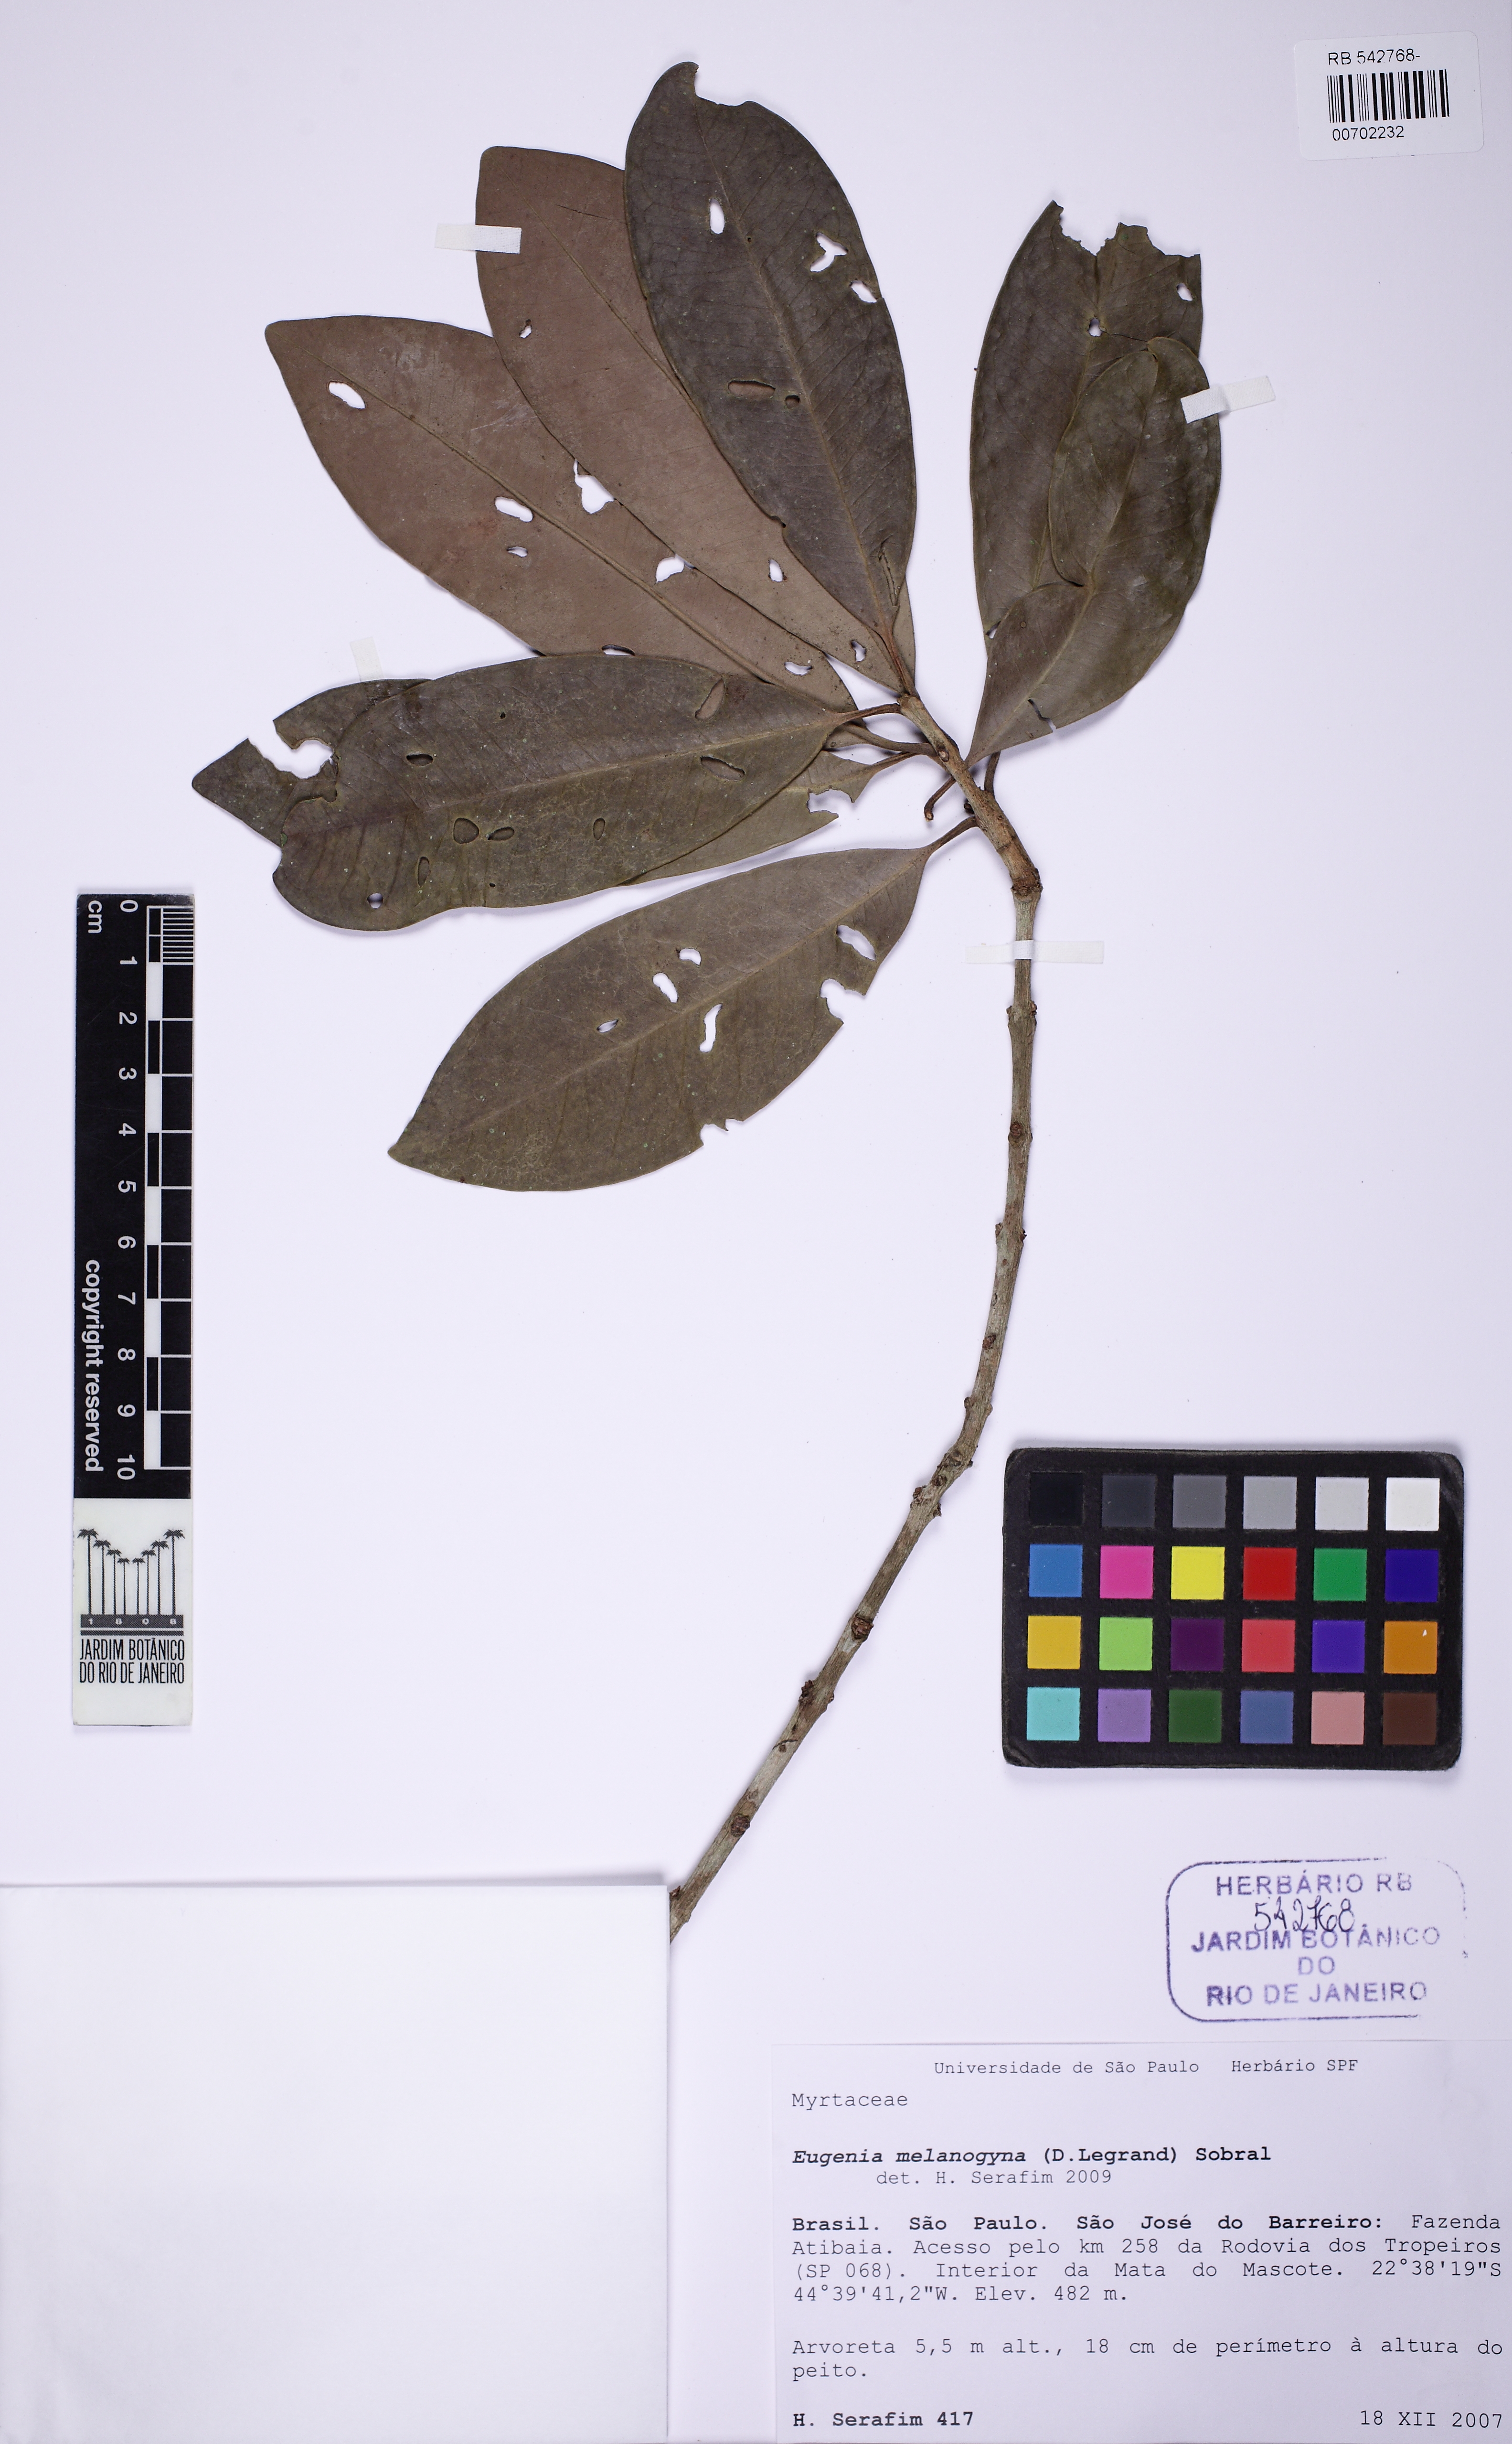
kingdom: Plantae
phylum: Tracheophyta
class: Magnoliopsida
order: Myrtales
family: Myrtaceae
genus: Eugenia
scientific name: Eugenia melanogyna
